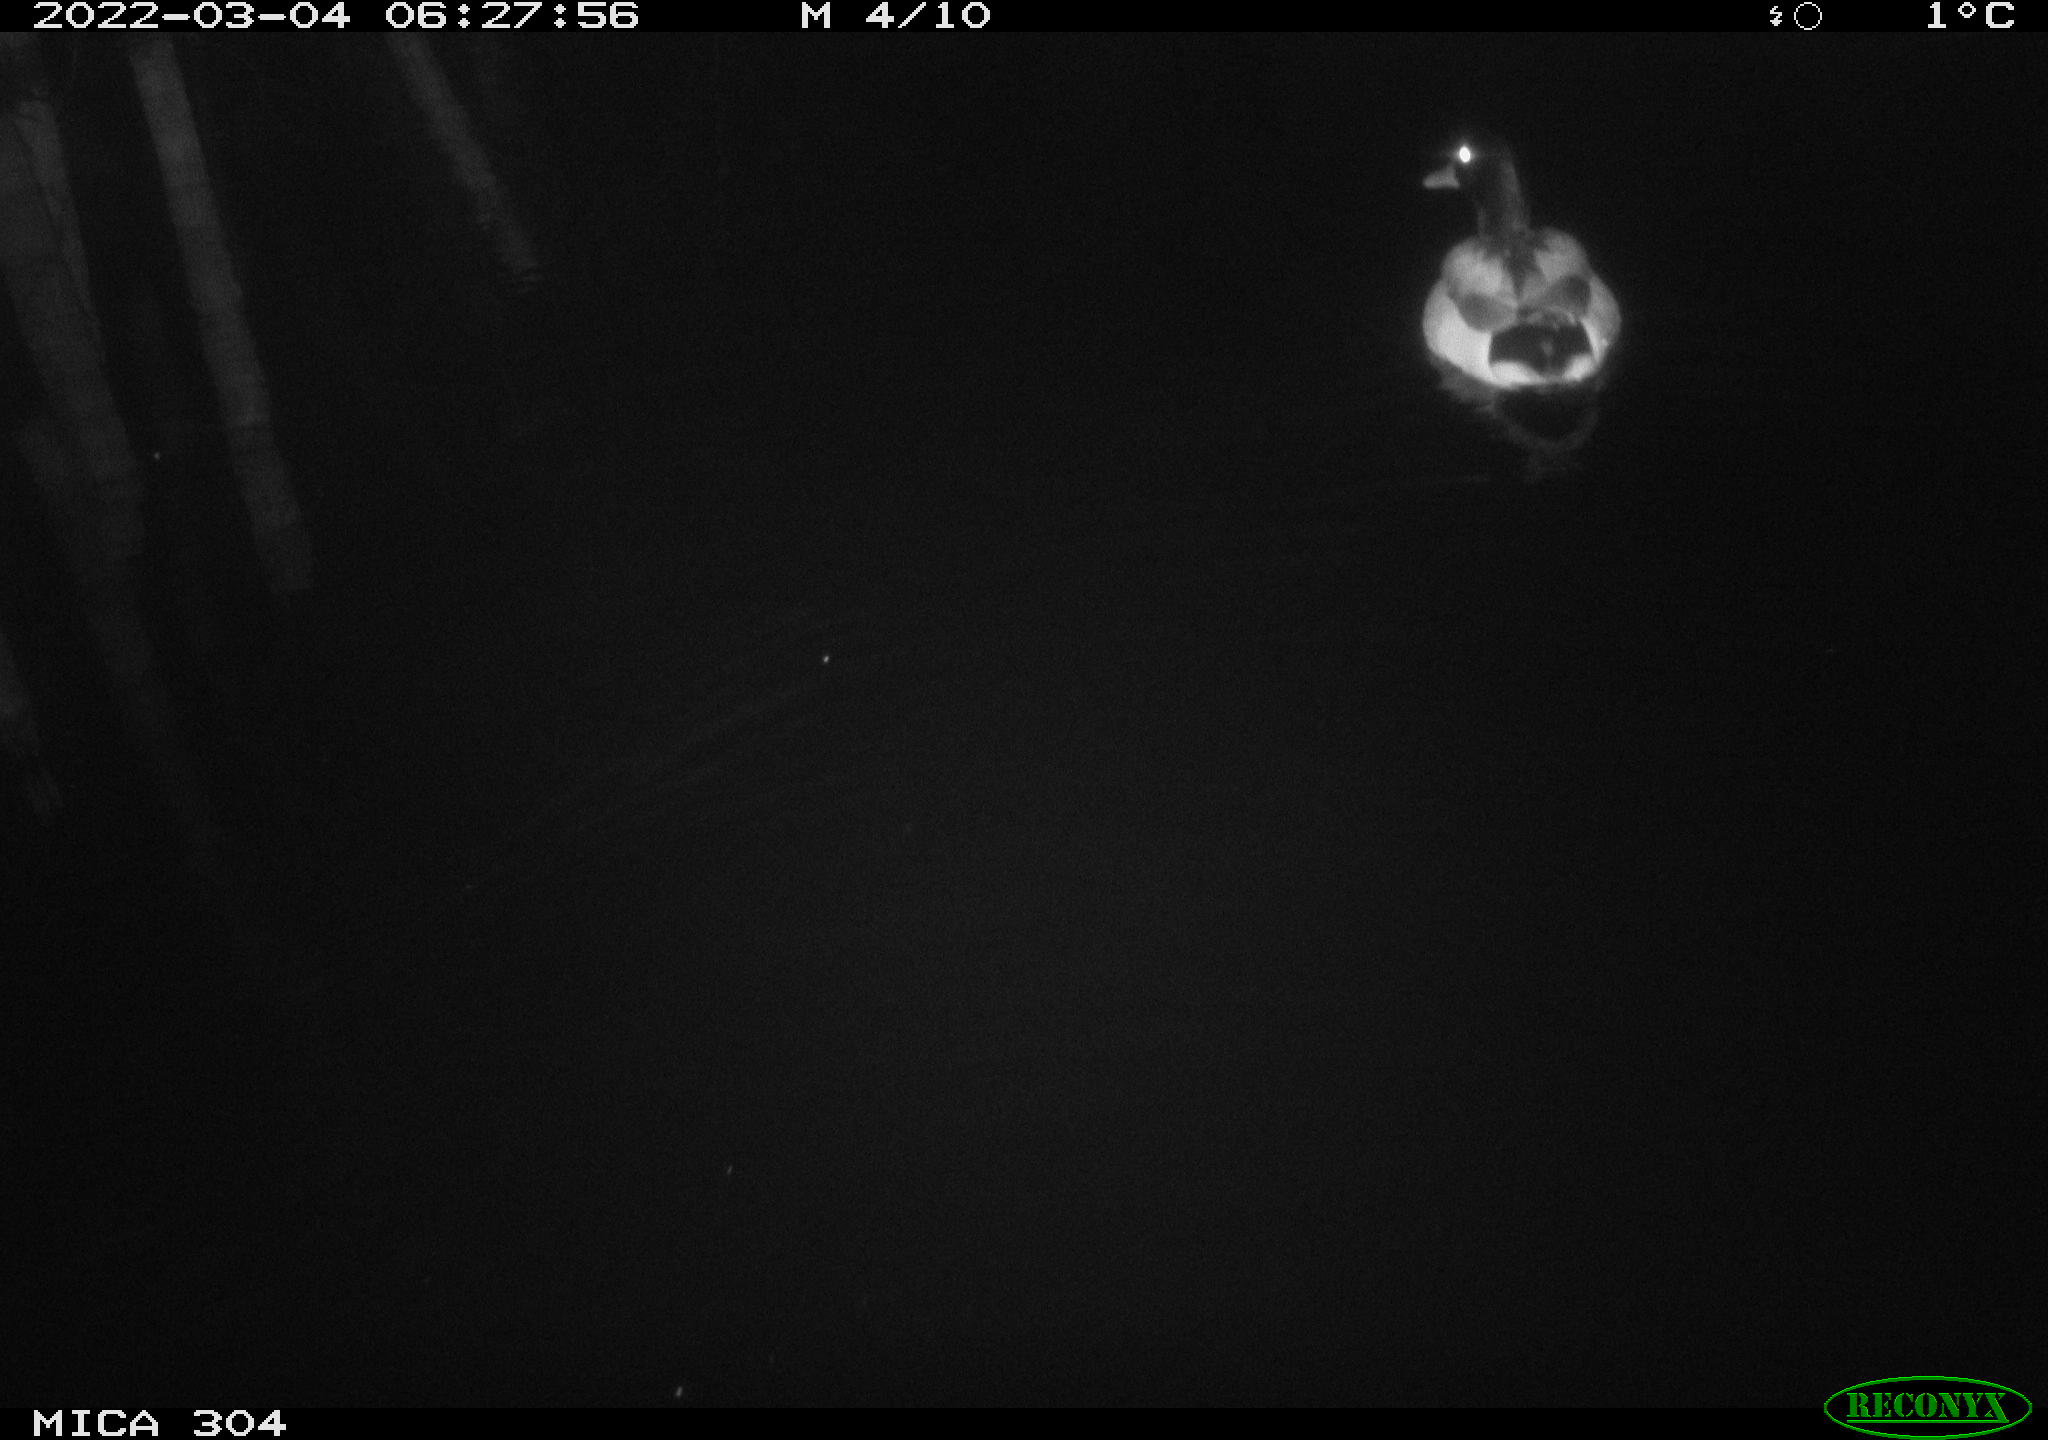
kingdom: Animalia
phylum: Chordata
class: Aves
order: Anseriformes
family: Anatidae
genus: Anas
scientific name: Anas platyrhynchos
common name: Mallard
